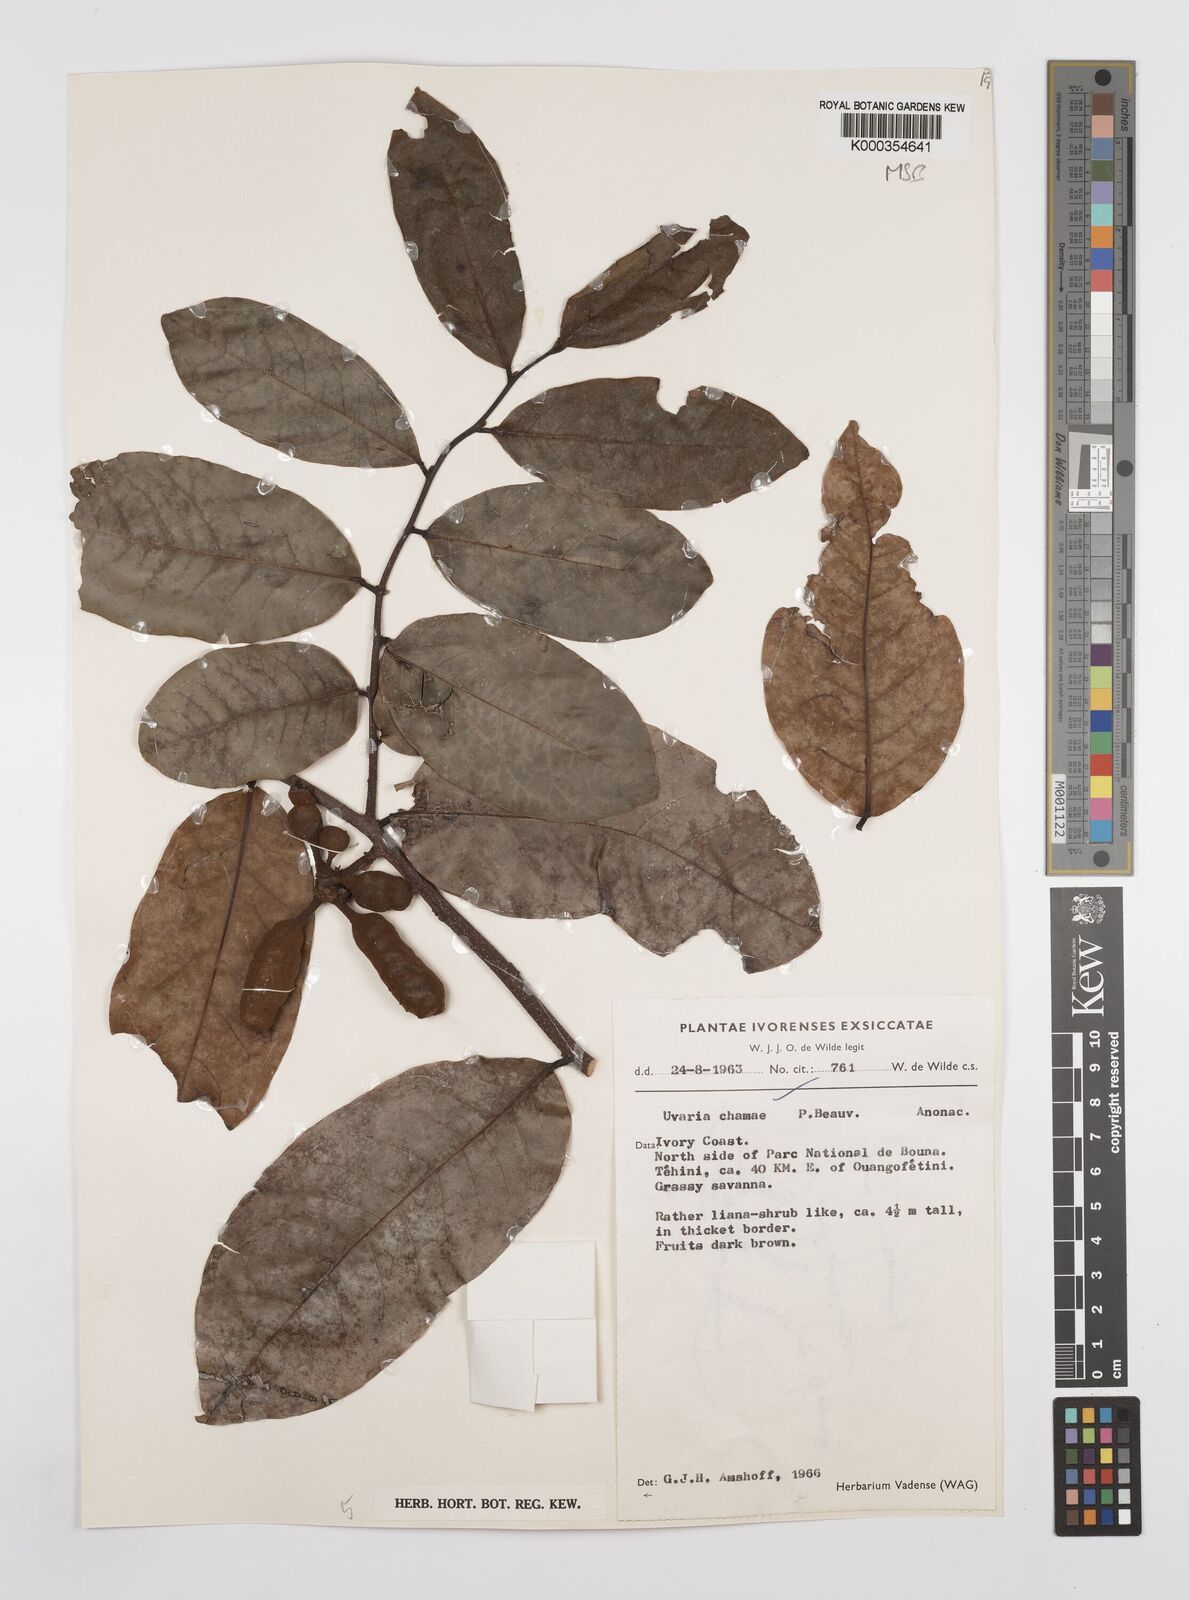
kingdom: Plantae
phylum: Tracheophyta
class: Magnoliopsida
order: Magnoliales
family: Annonaceae
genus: Uvaria
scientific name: Uvaria chamae
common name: Finger-root
